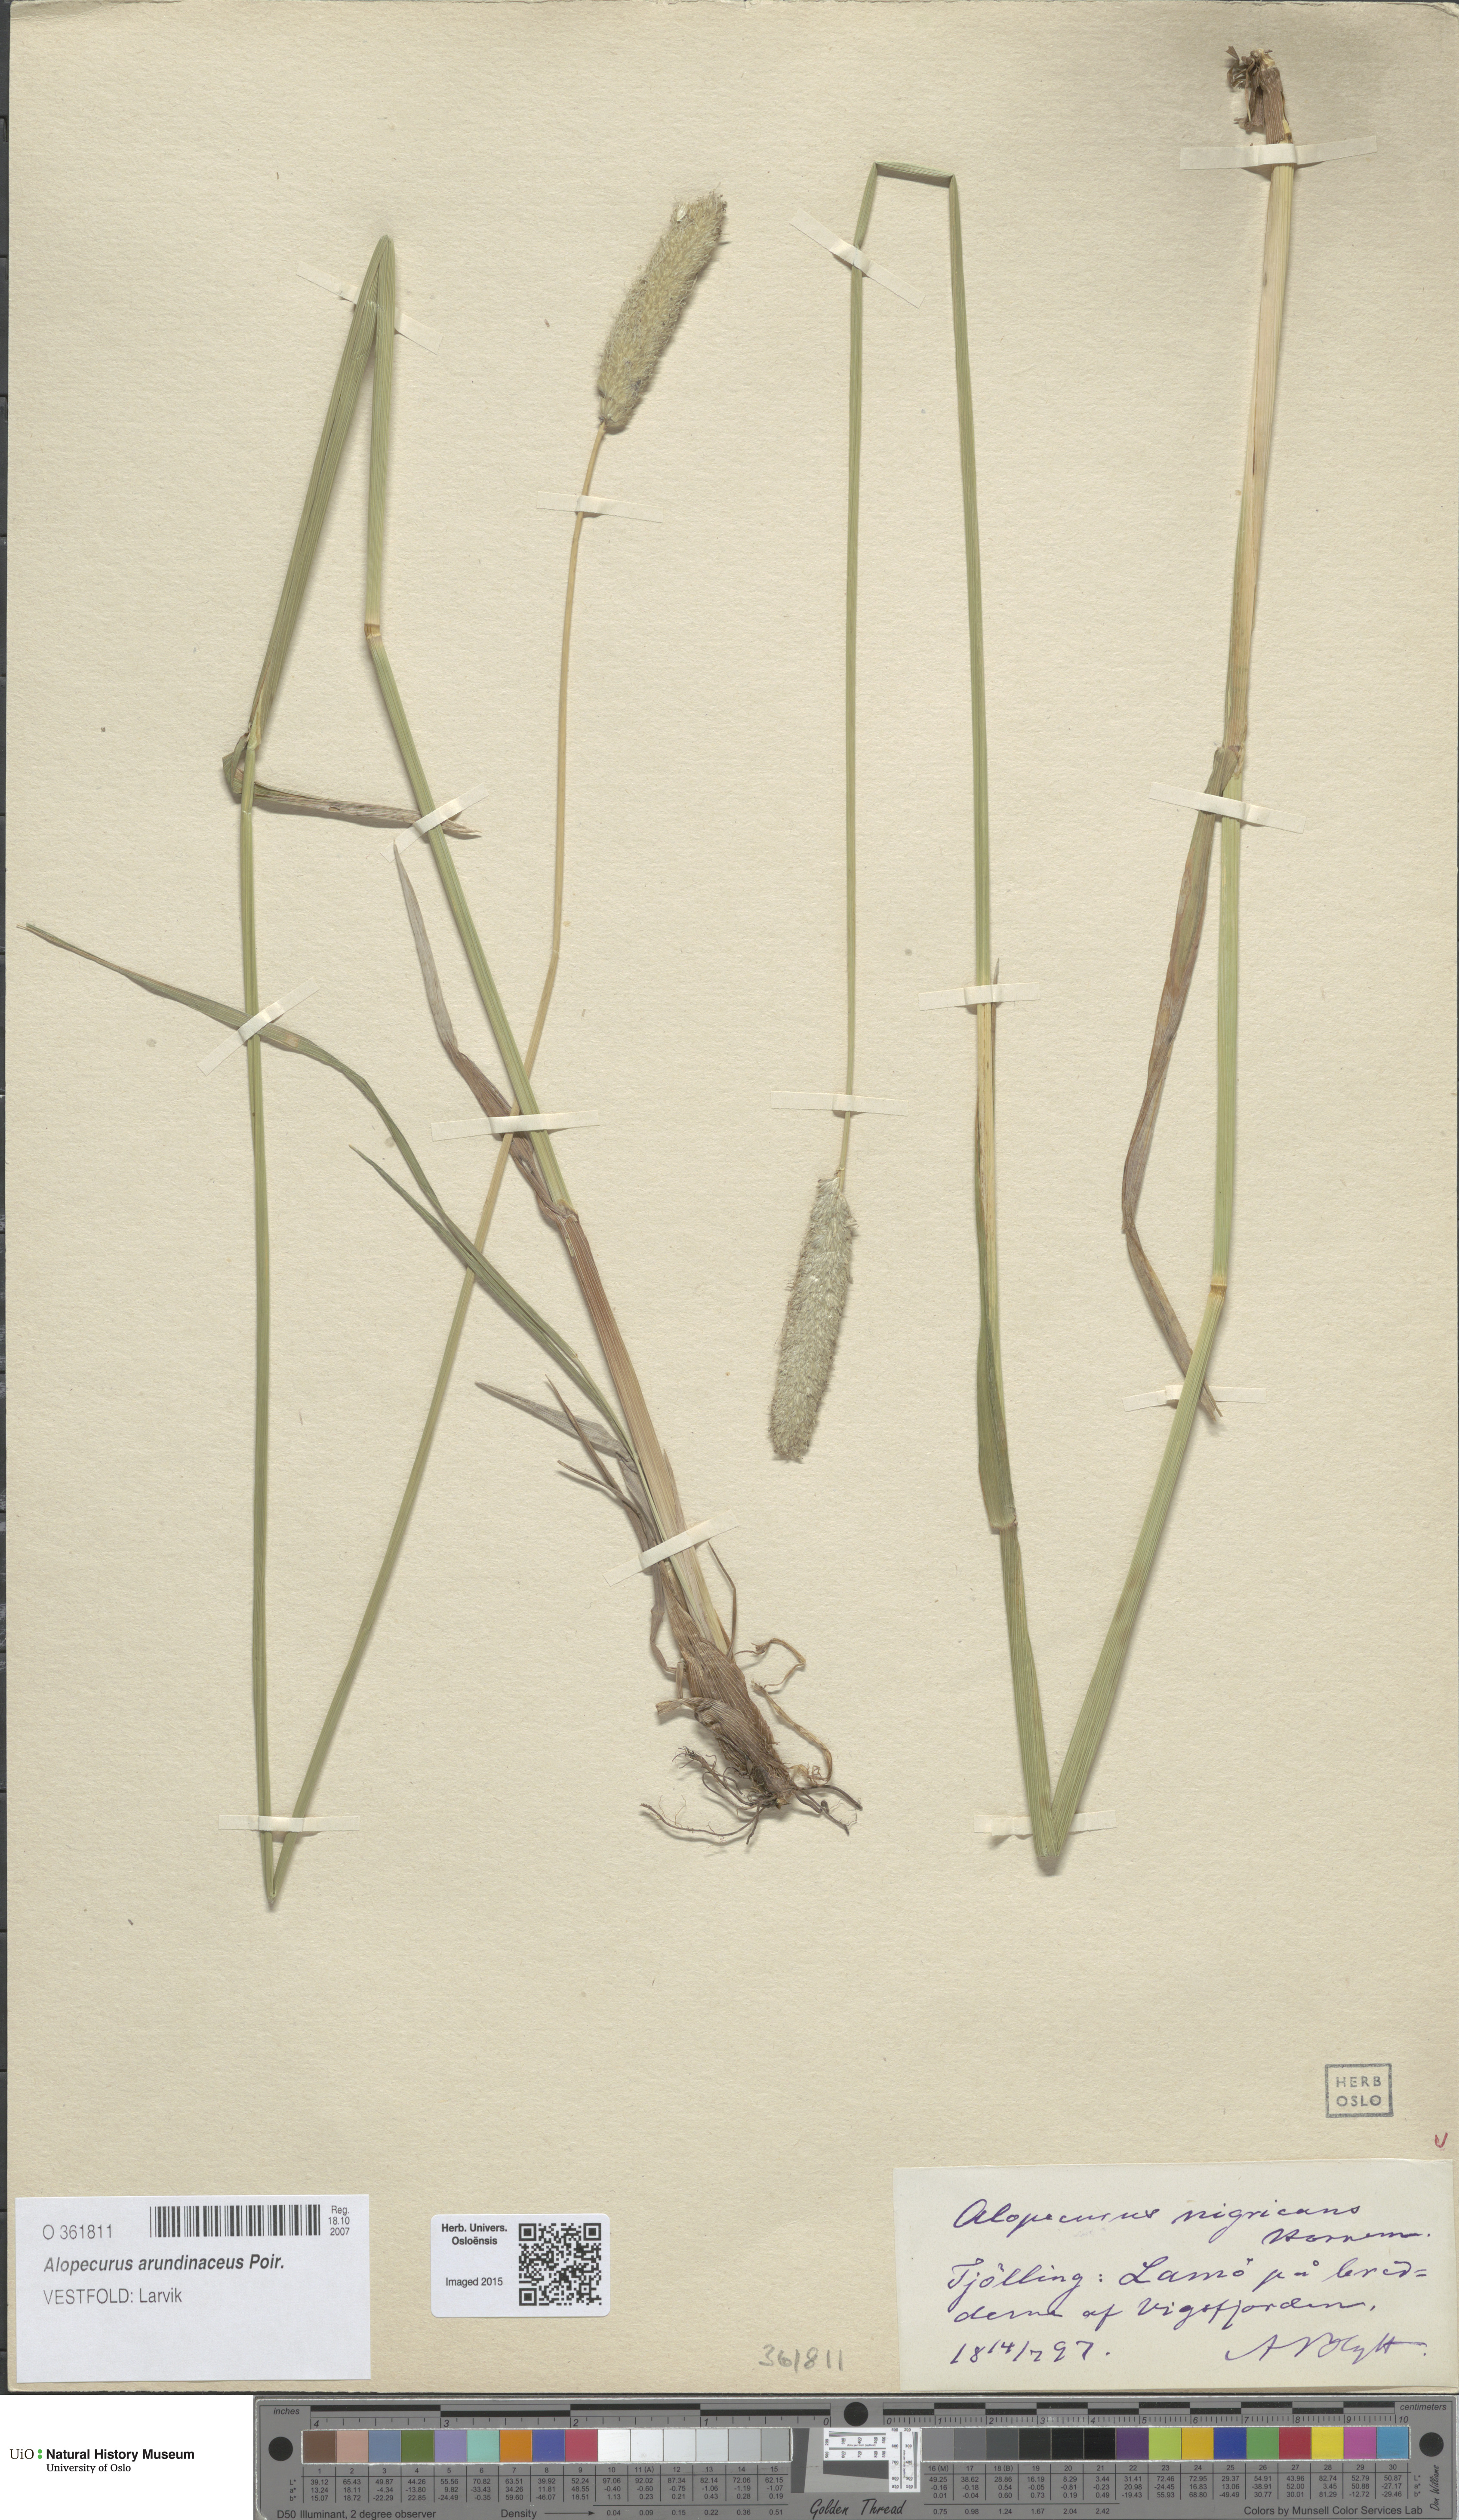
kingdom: Plantae
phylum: Tracheophyta
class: Liliopsida
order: Poales
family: Poaceae
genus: Alopecurus
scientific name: Alopecurus arundinaceus
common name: Creeping meadow foxtail
